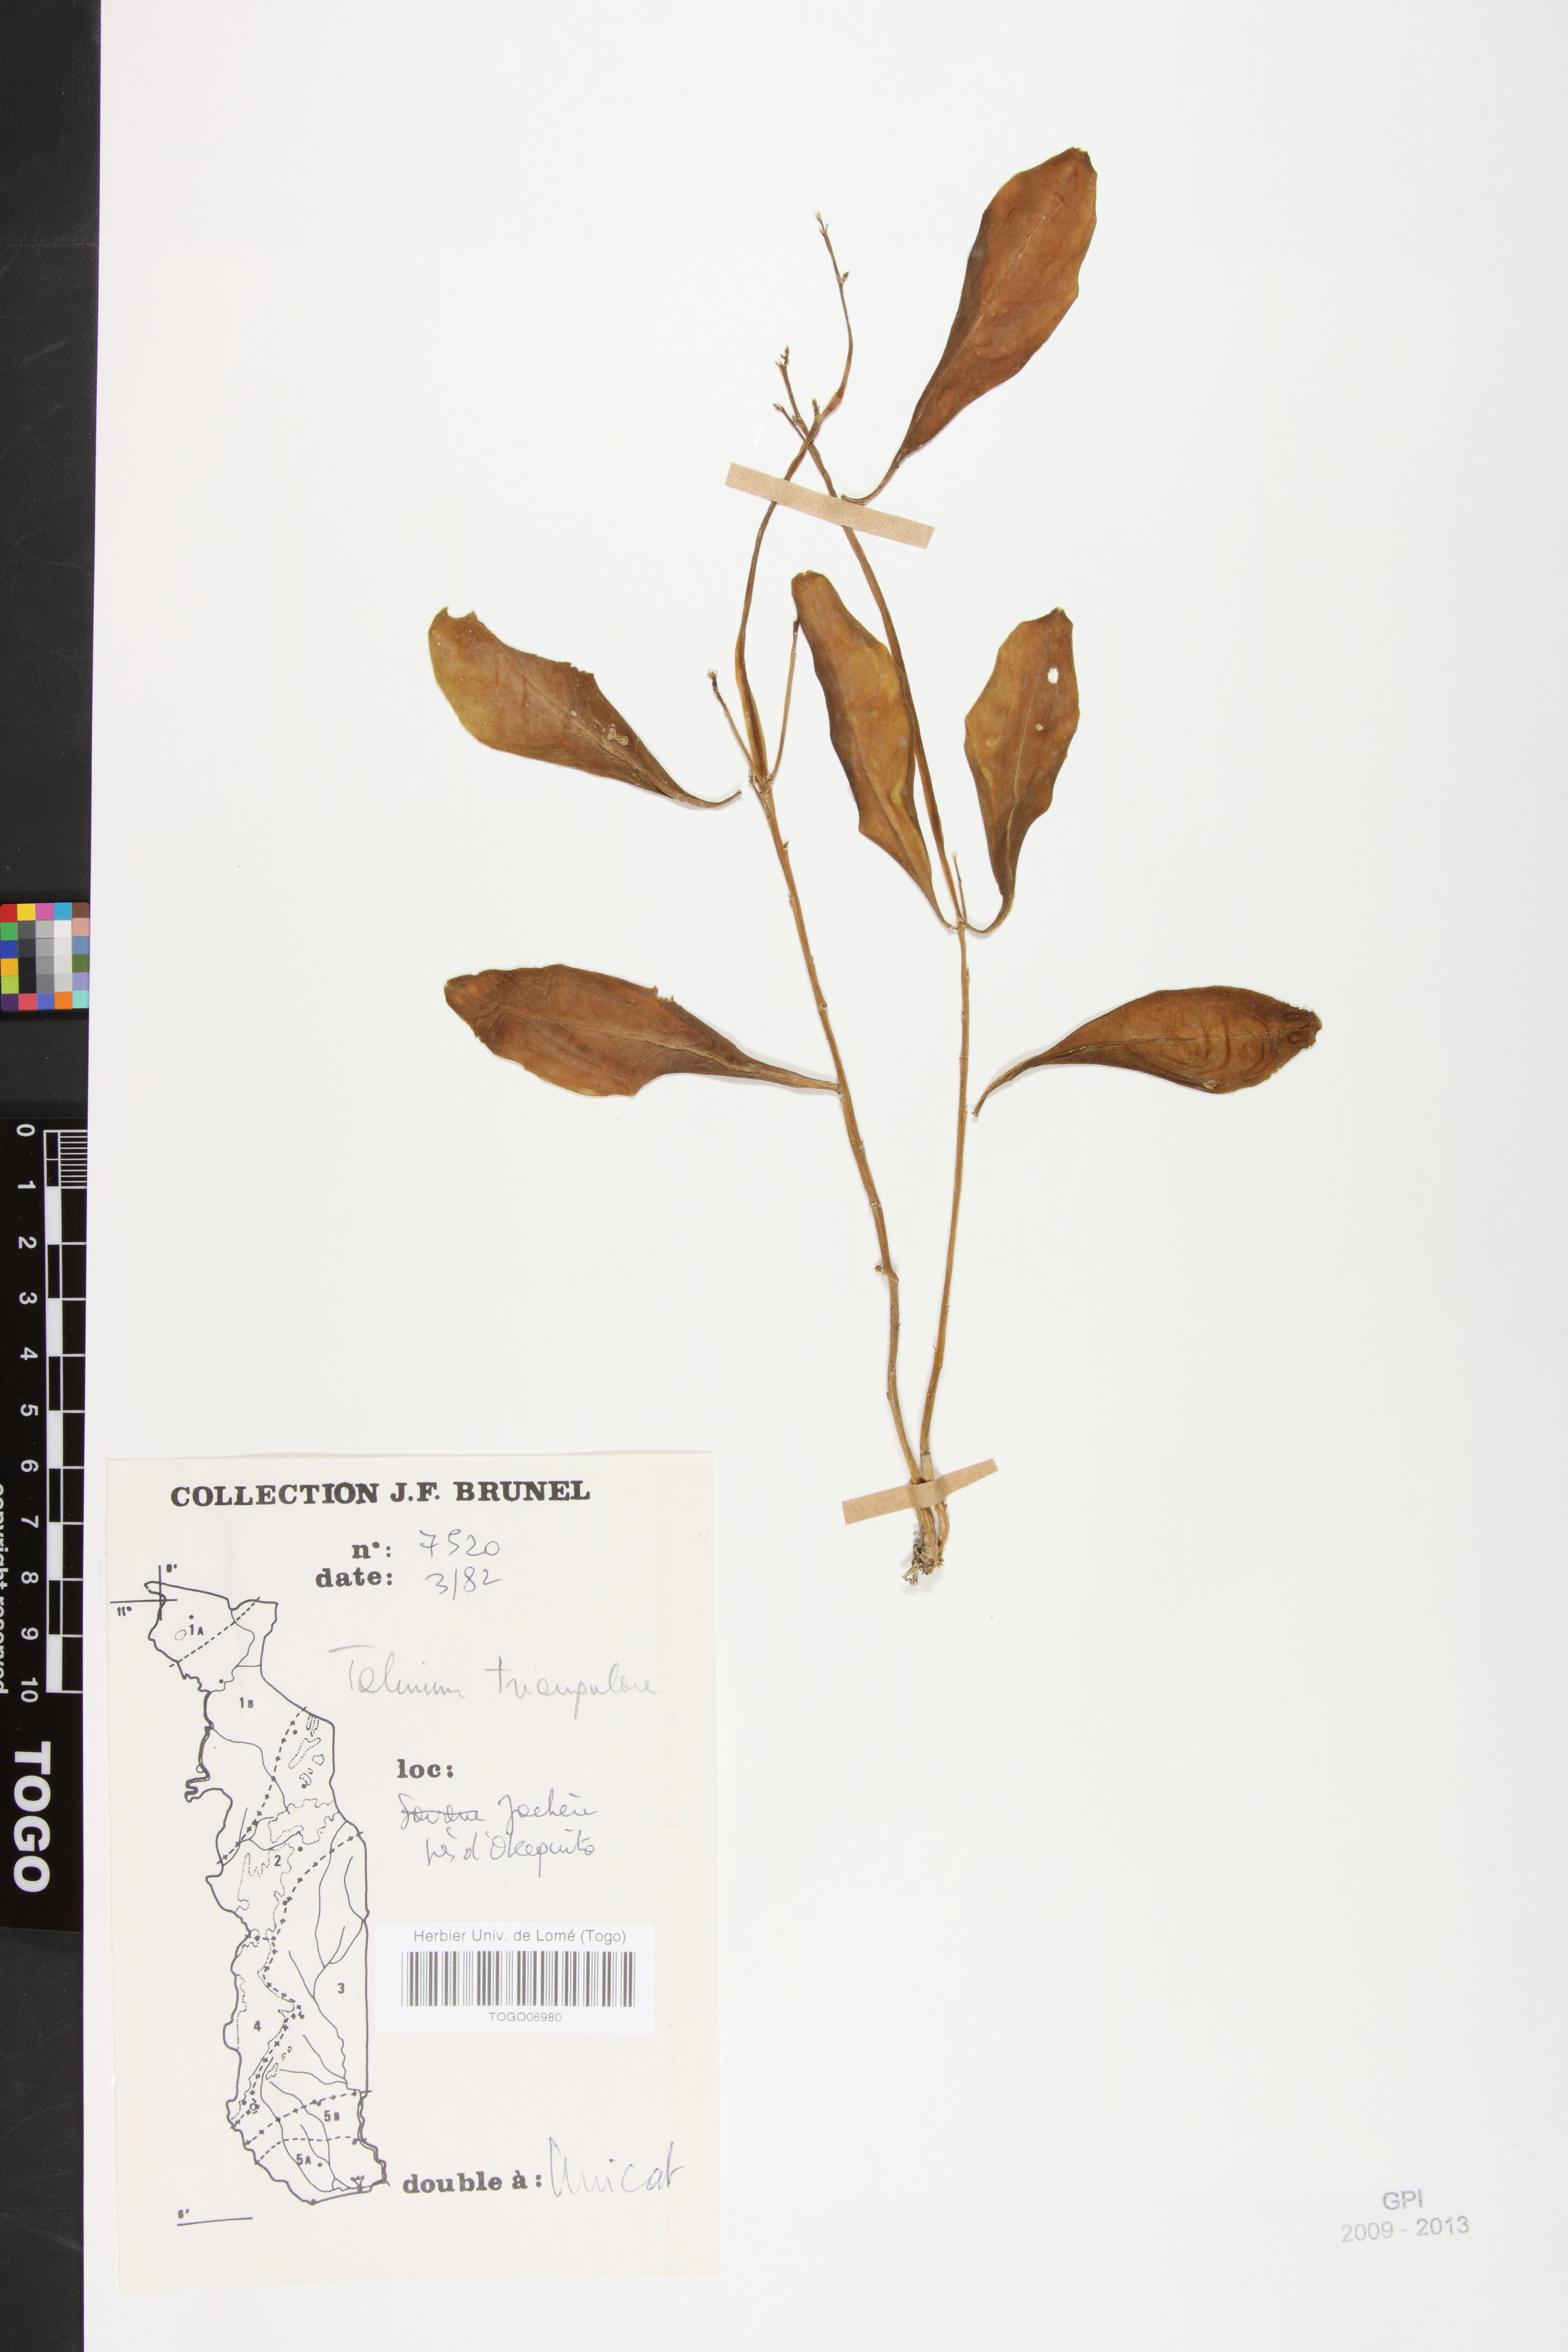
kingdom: Plantae
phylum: Tracheophyta
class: Magnoliopsida
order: Caryophyllales
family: Talinaceae
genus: Talinum
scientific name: Talinum fruticosum
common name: Verdolaga-francesa
